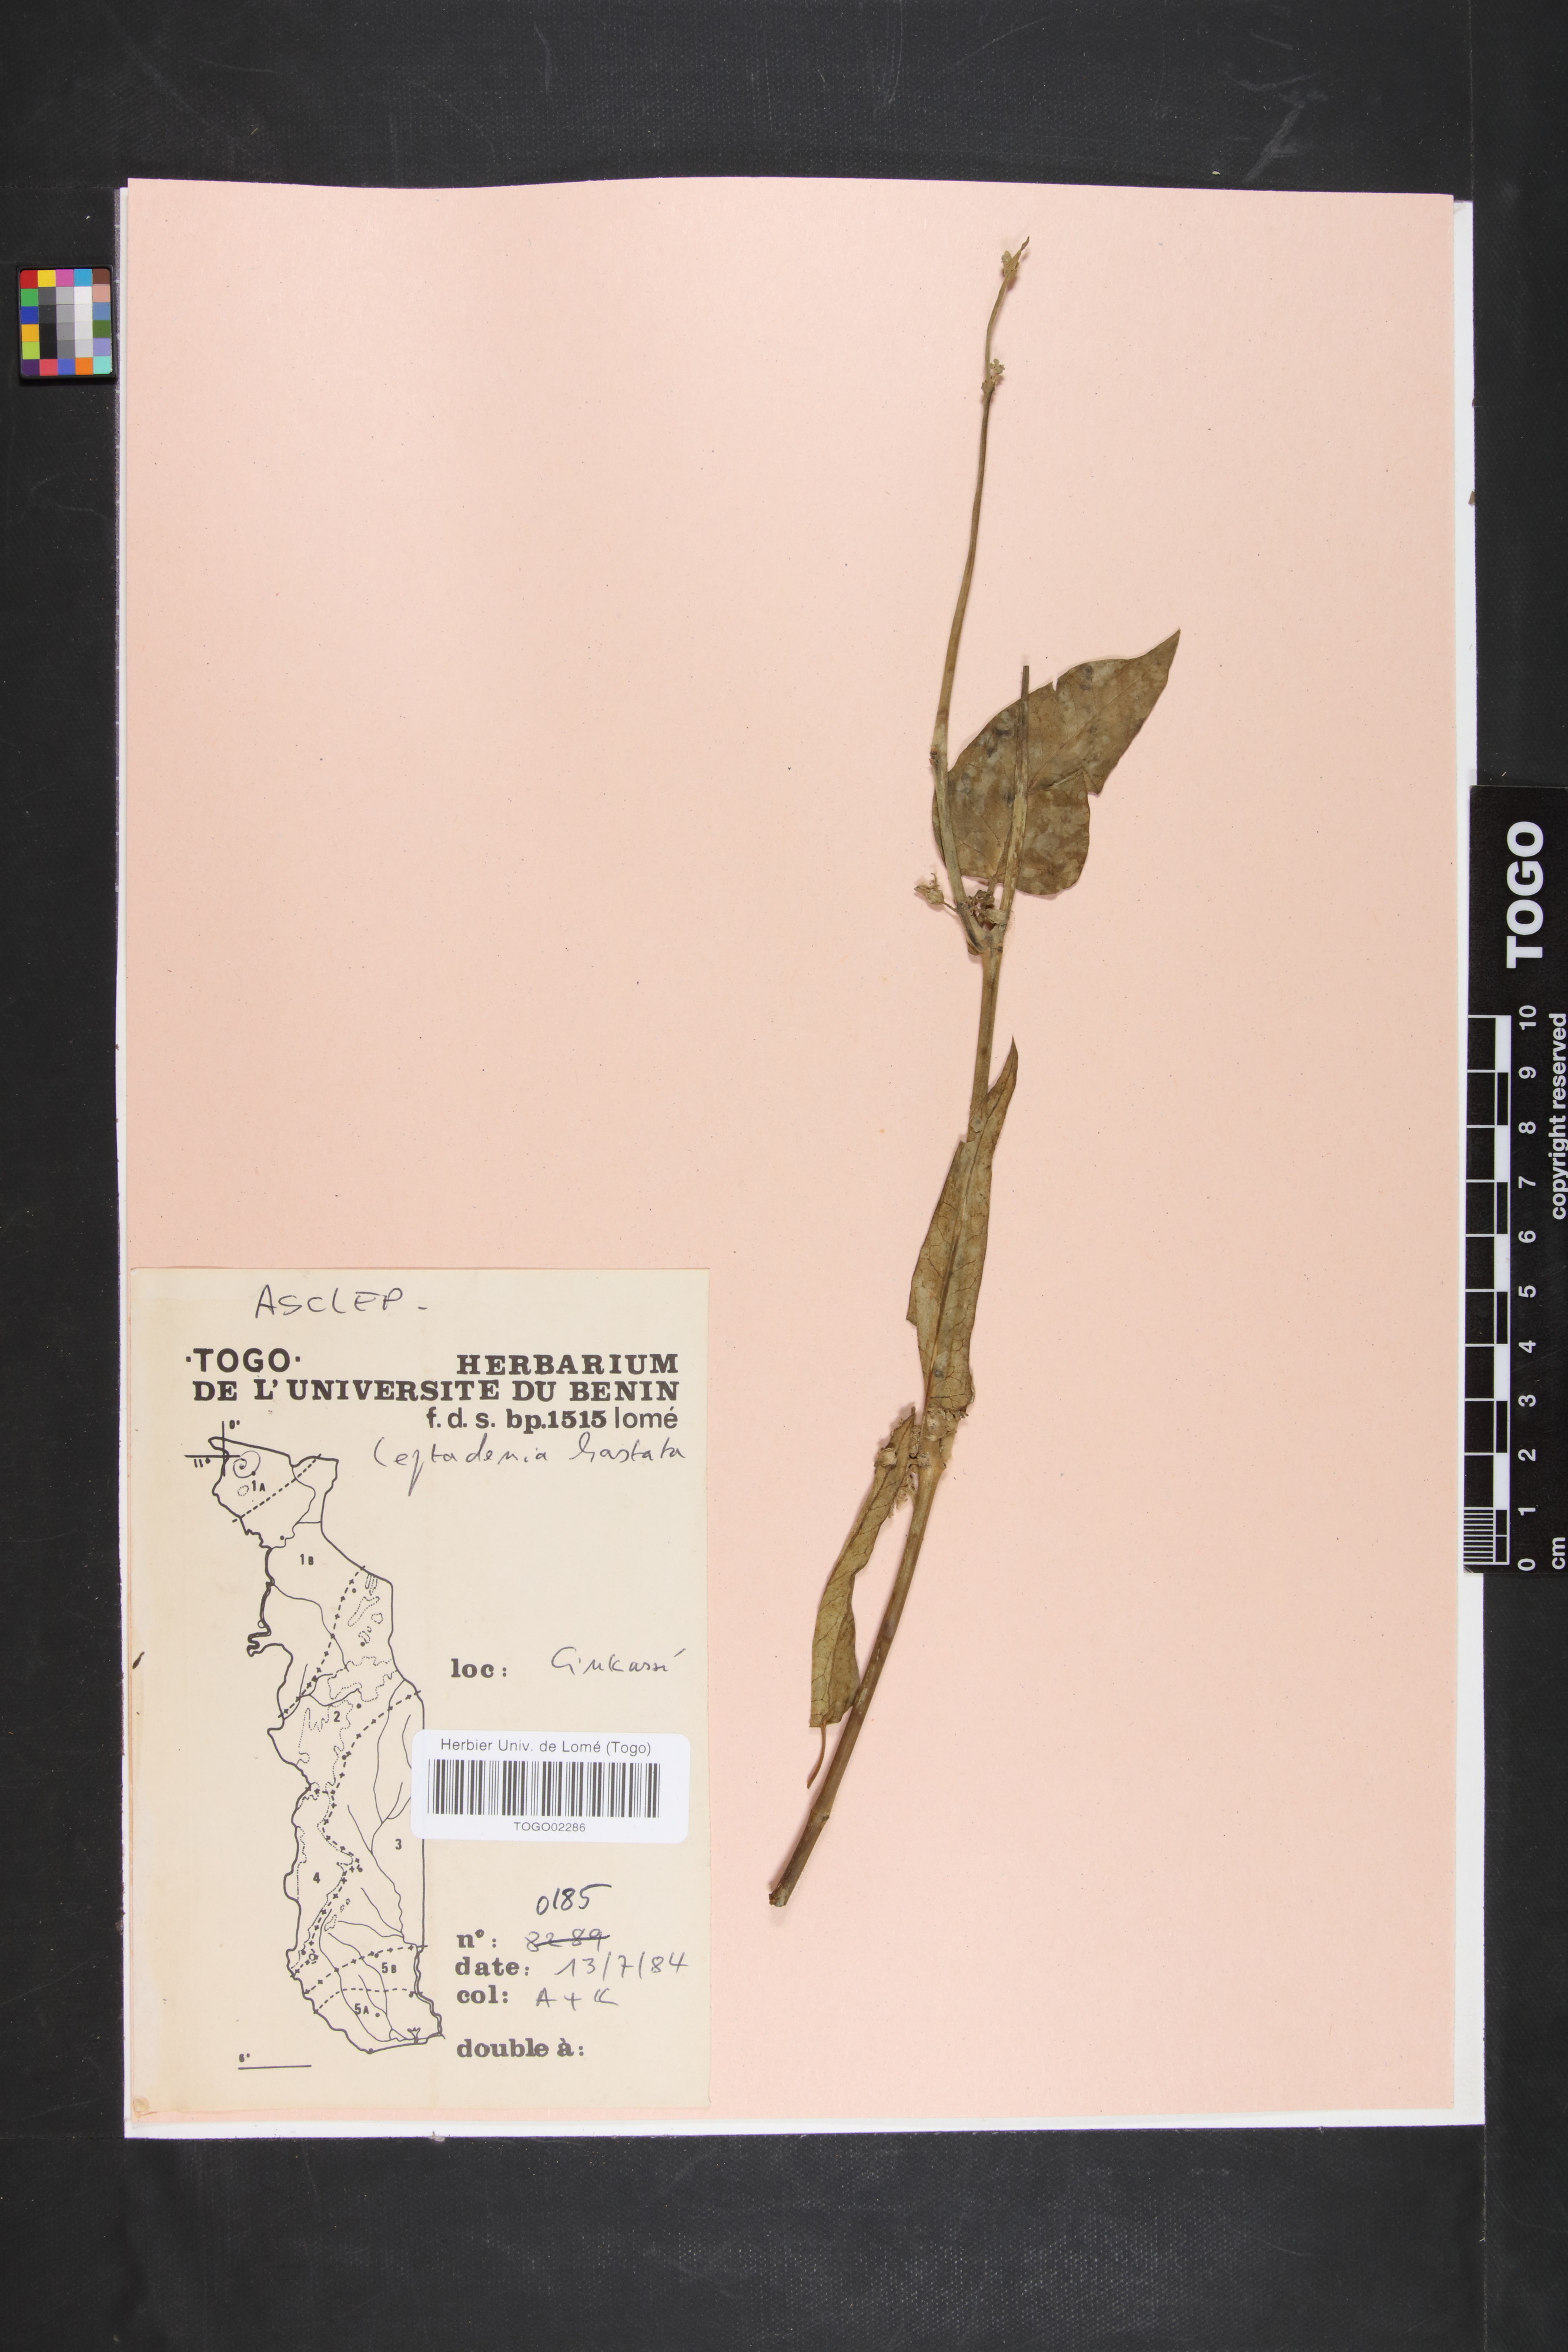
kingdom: Plantae
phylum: Tracheophyta
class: Magnoliopsida
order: Gentianales
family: Apocynaceae
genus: Leptadenia
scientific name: Leptadenia lanceolata
